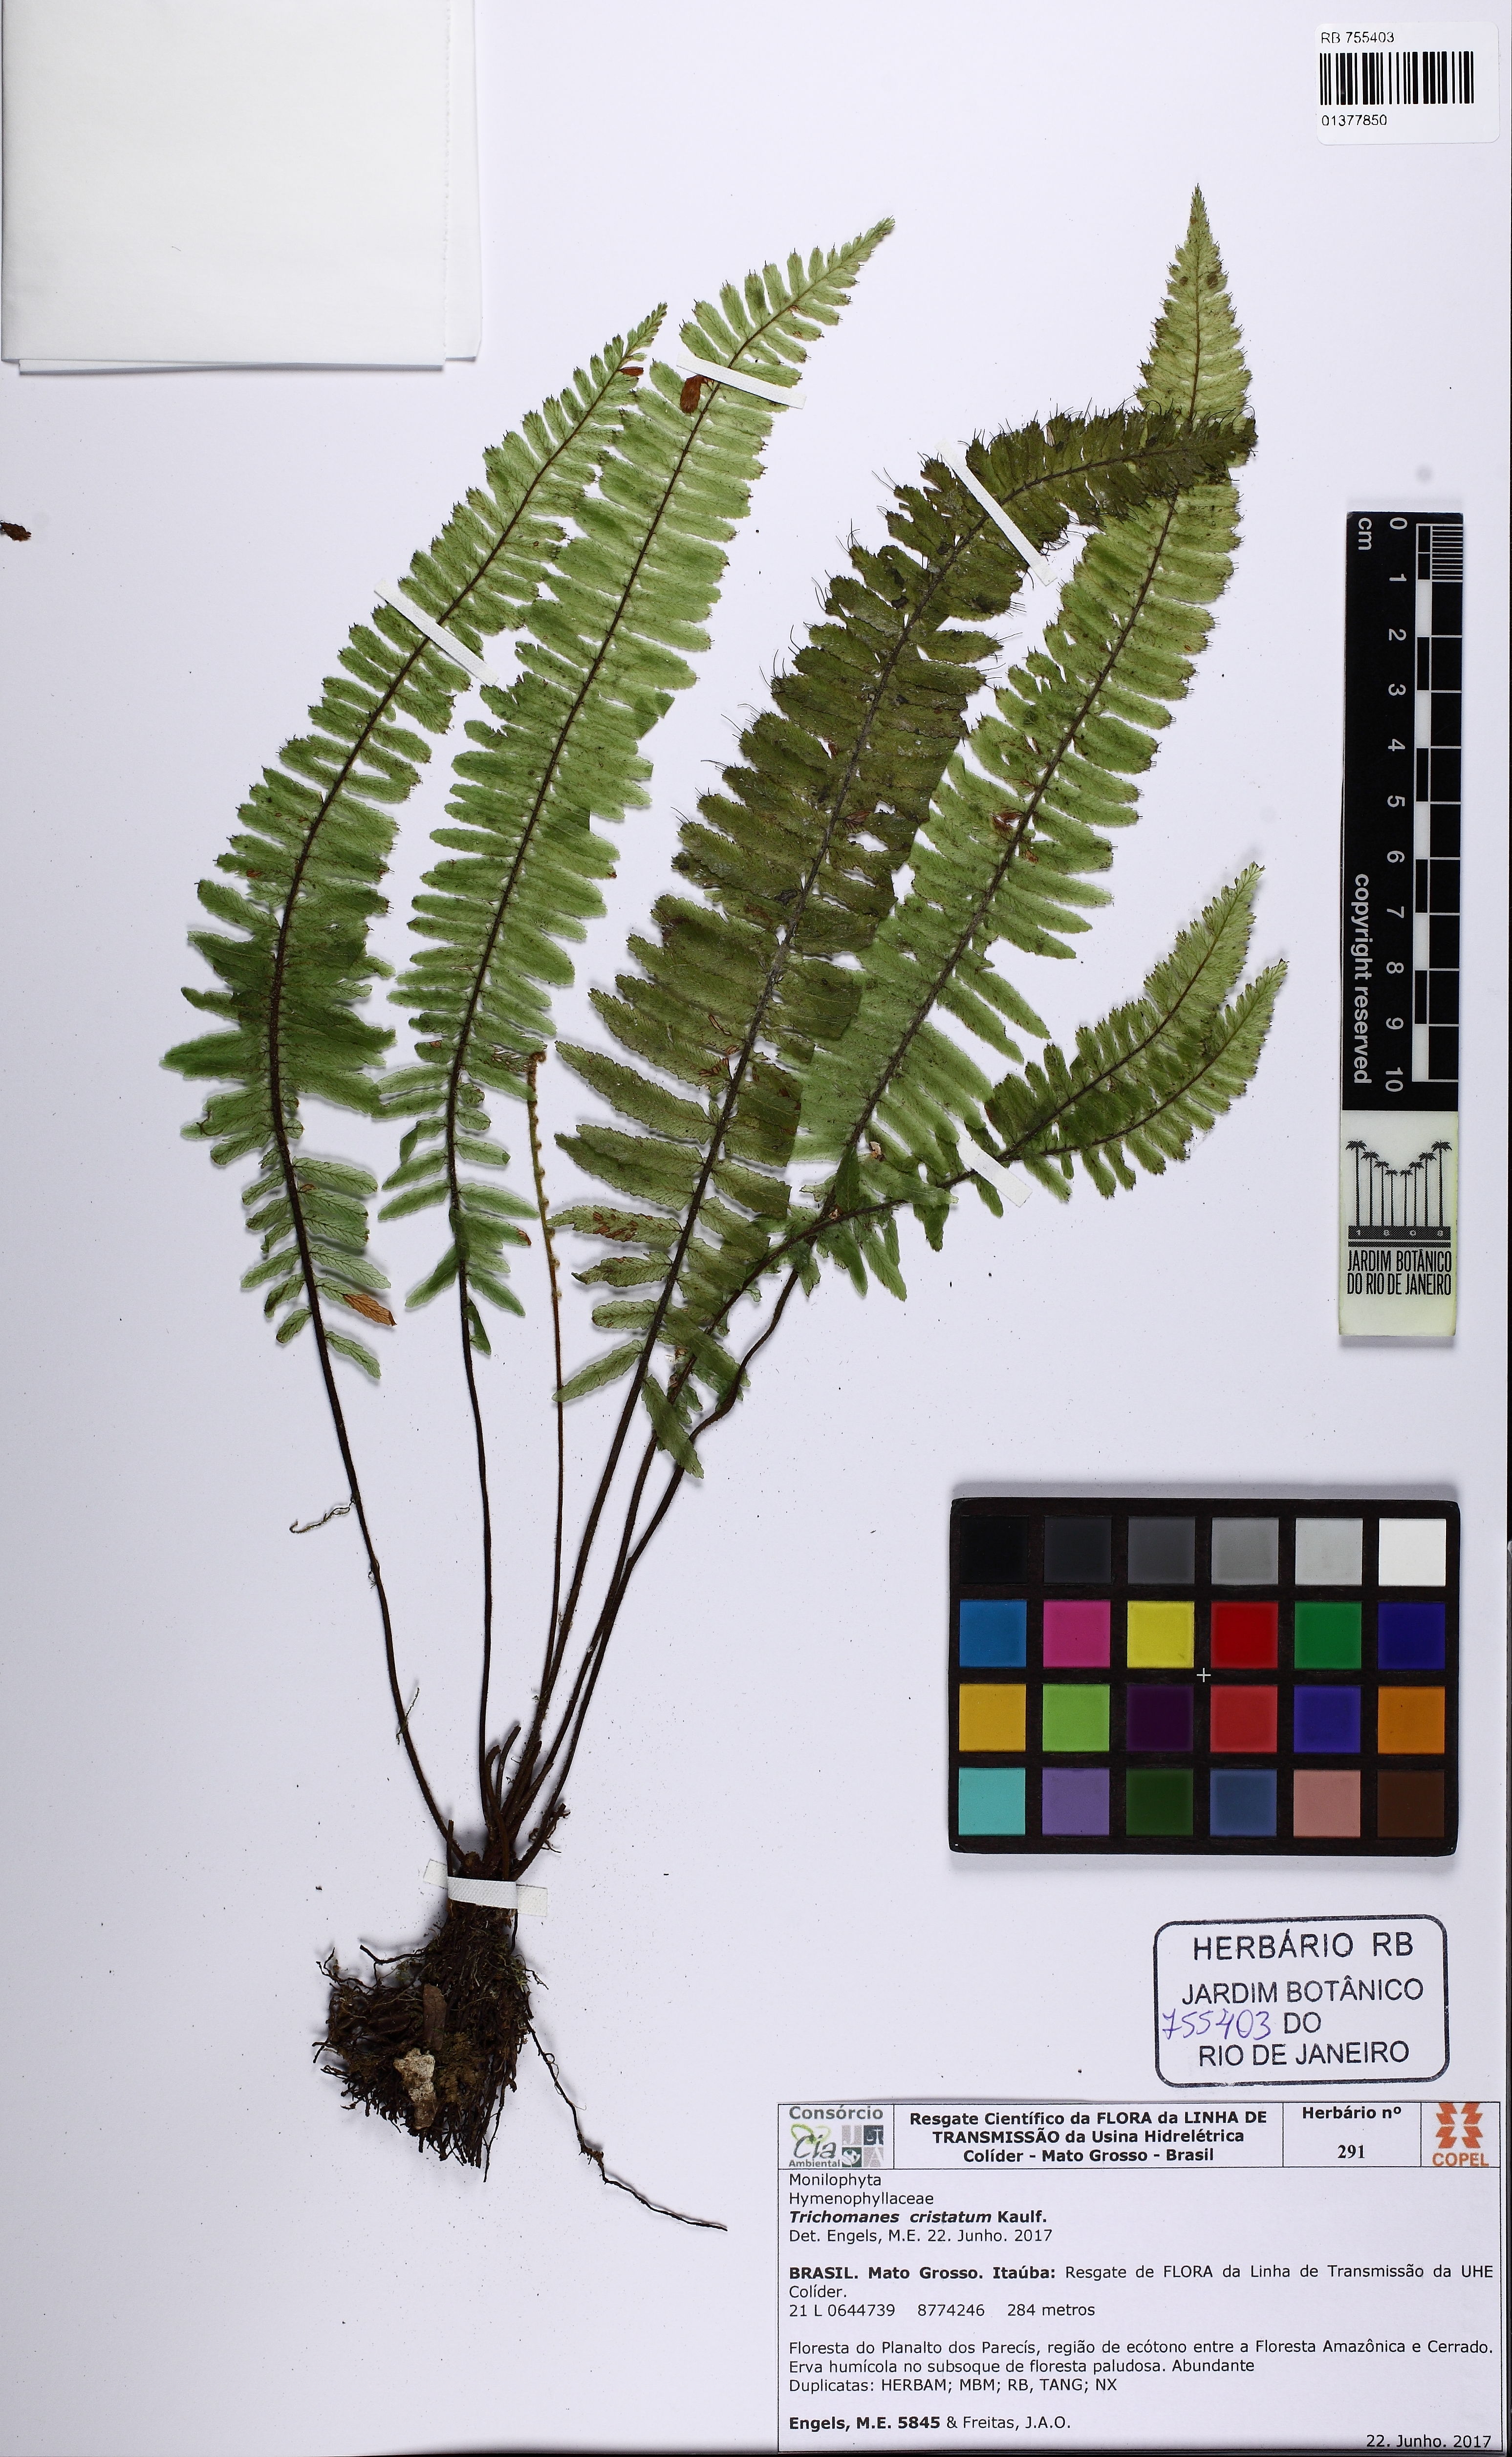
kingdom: Plantae
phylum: Tracheophyta
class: Polypodiopsida
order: Hymenophyllales
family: Hymenophyllaceae
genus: Trichomanes
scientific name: Trichomanes cristatum
